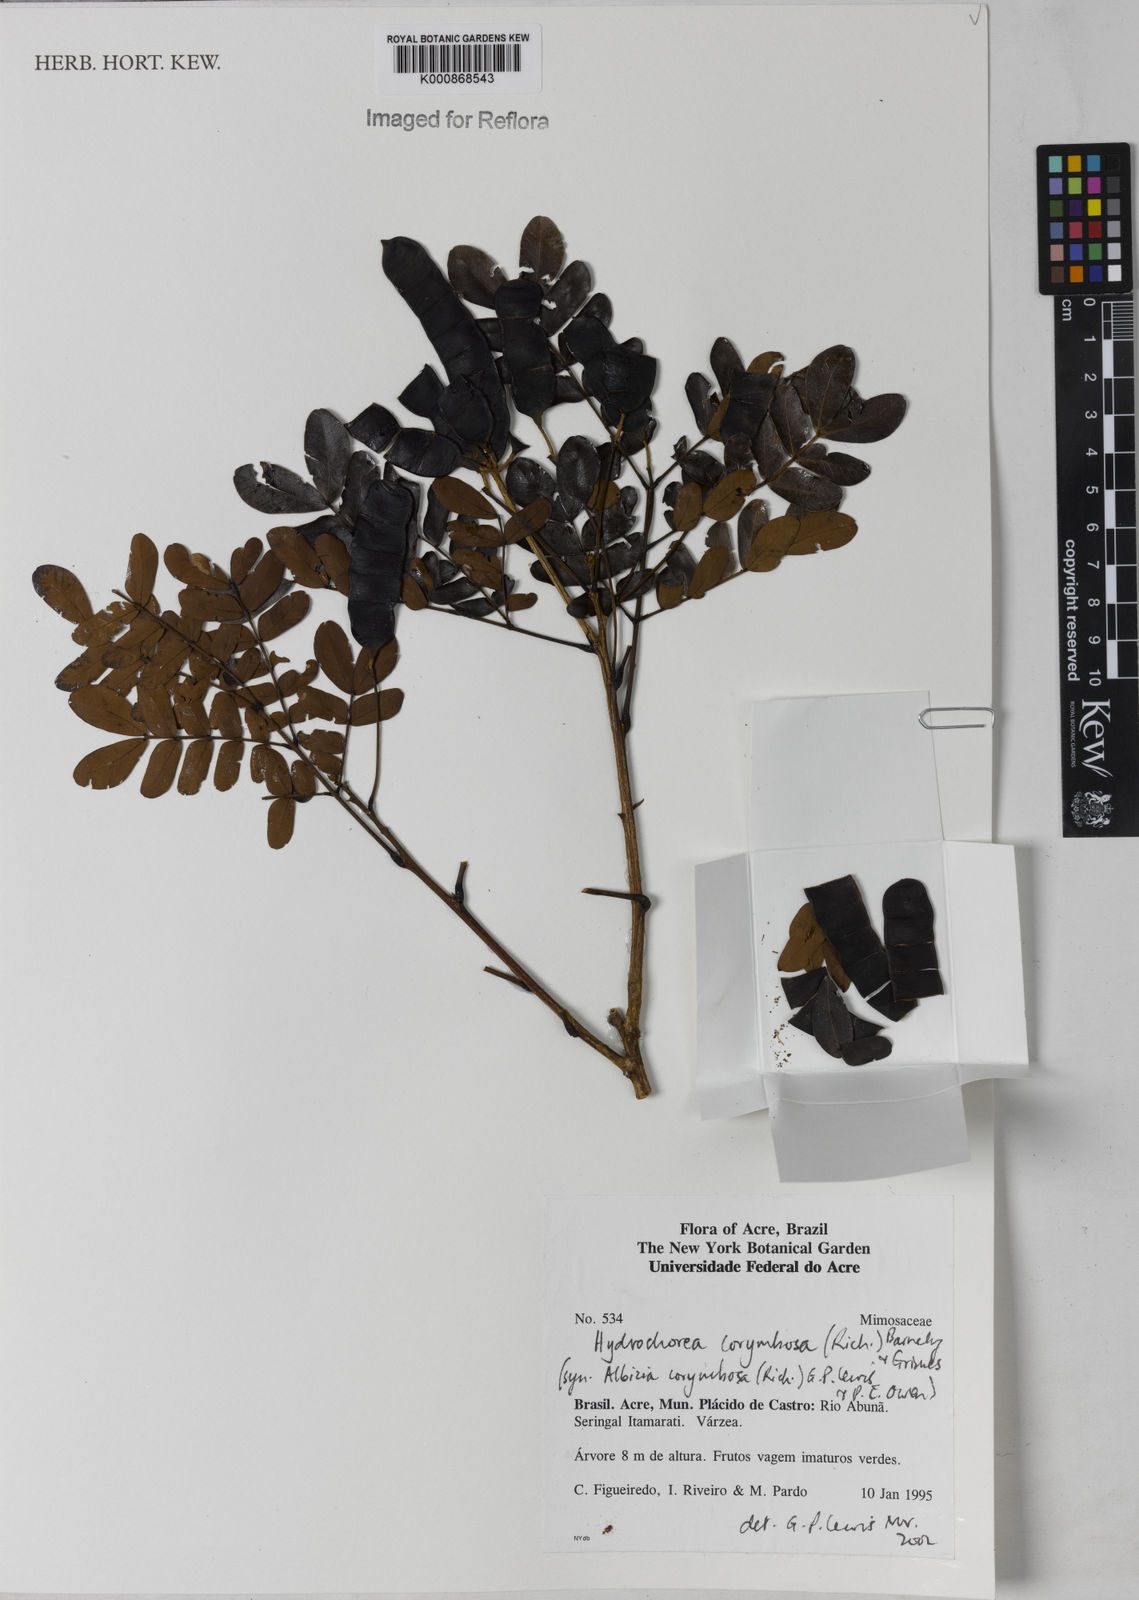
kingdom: Plantae
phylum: Tracheophyta
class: Magnoliopsida
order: Fabales
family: Fabaceae
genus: Hydrochorea
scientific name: Hydrochorea corymbosa
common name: Swamp manariballi
